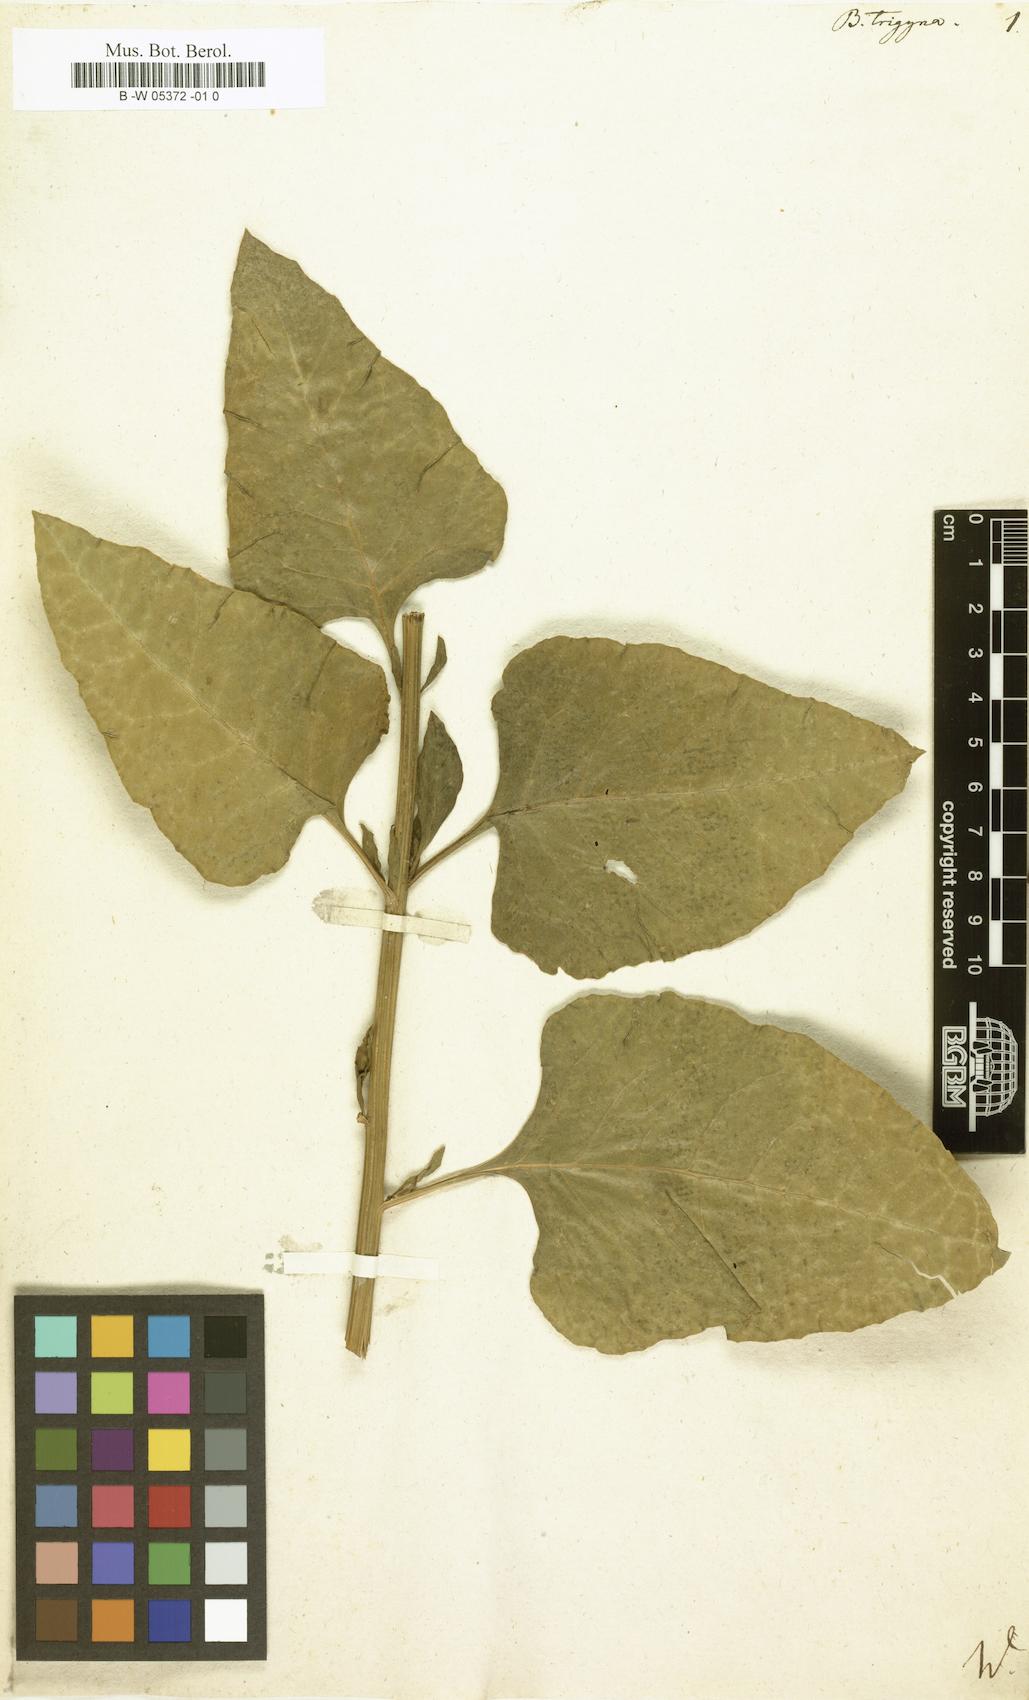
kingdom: Plantae
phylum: Tracheophyta
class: Magnoliopsida
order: Caryophyllales
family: Amaranthaceae
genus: Beta
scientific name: Beta trigyna
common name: Caucasian beet
